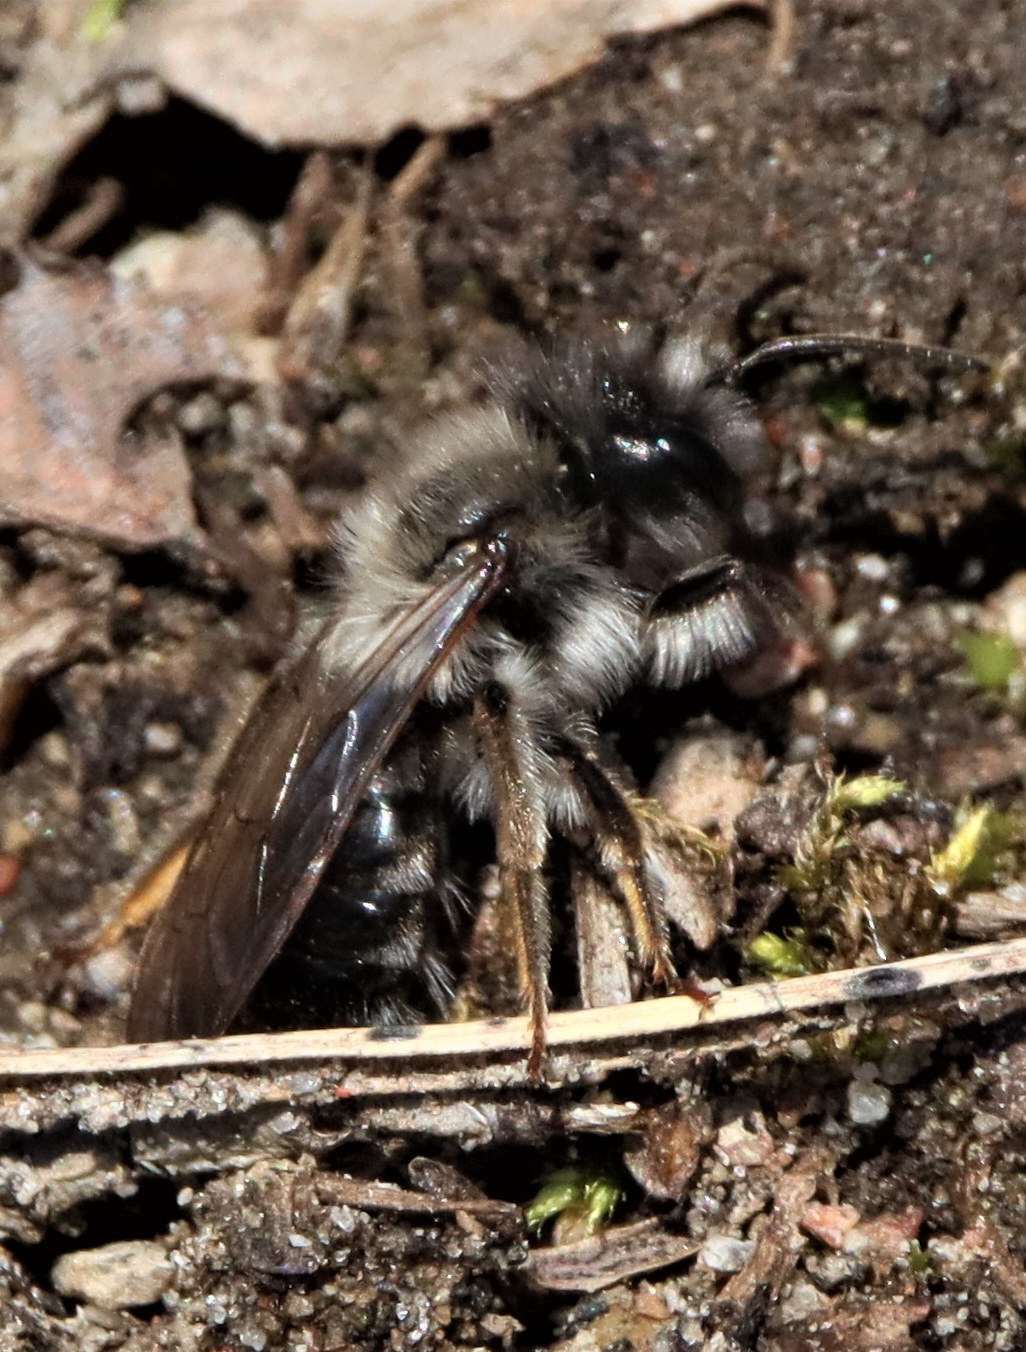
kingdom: Animalia
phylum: Arthropoda
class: Insecta
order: Hymenoptera
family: Andrenidae
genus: Andrena
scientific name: Andrena vaga
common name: Grey-backed mining bee
